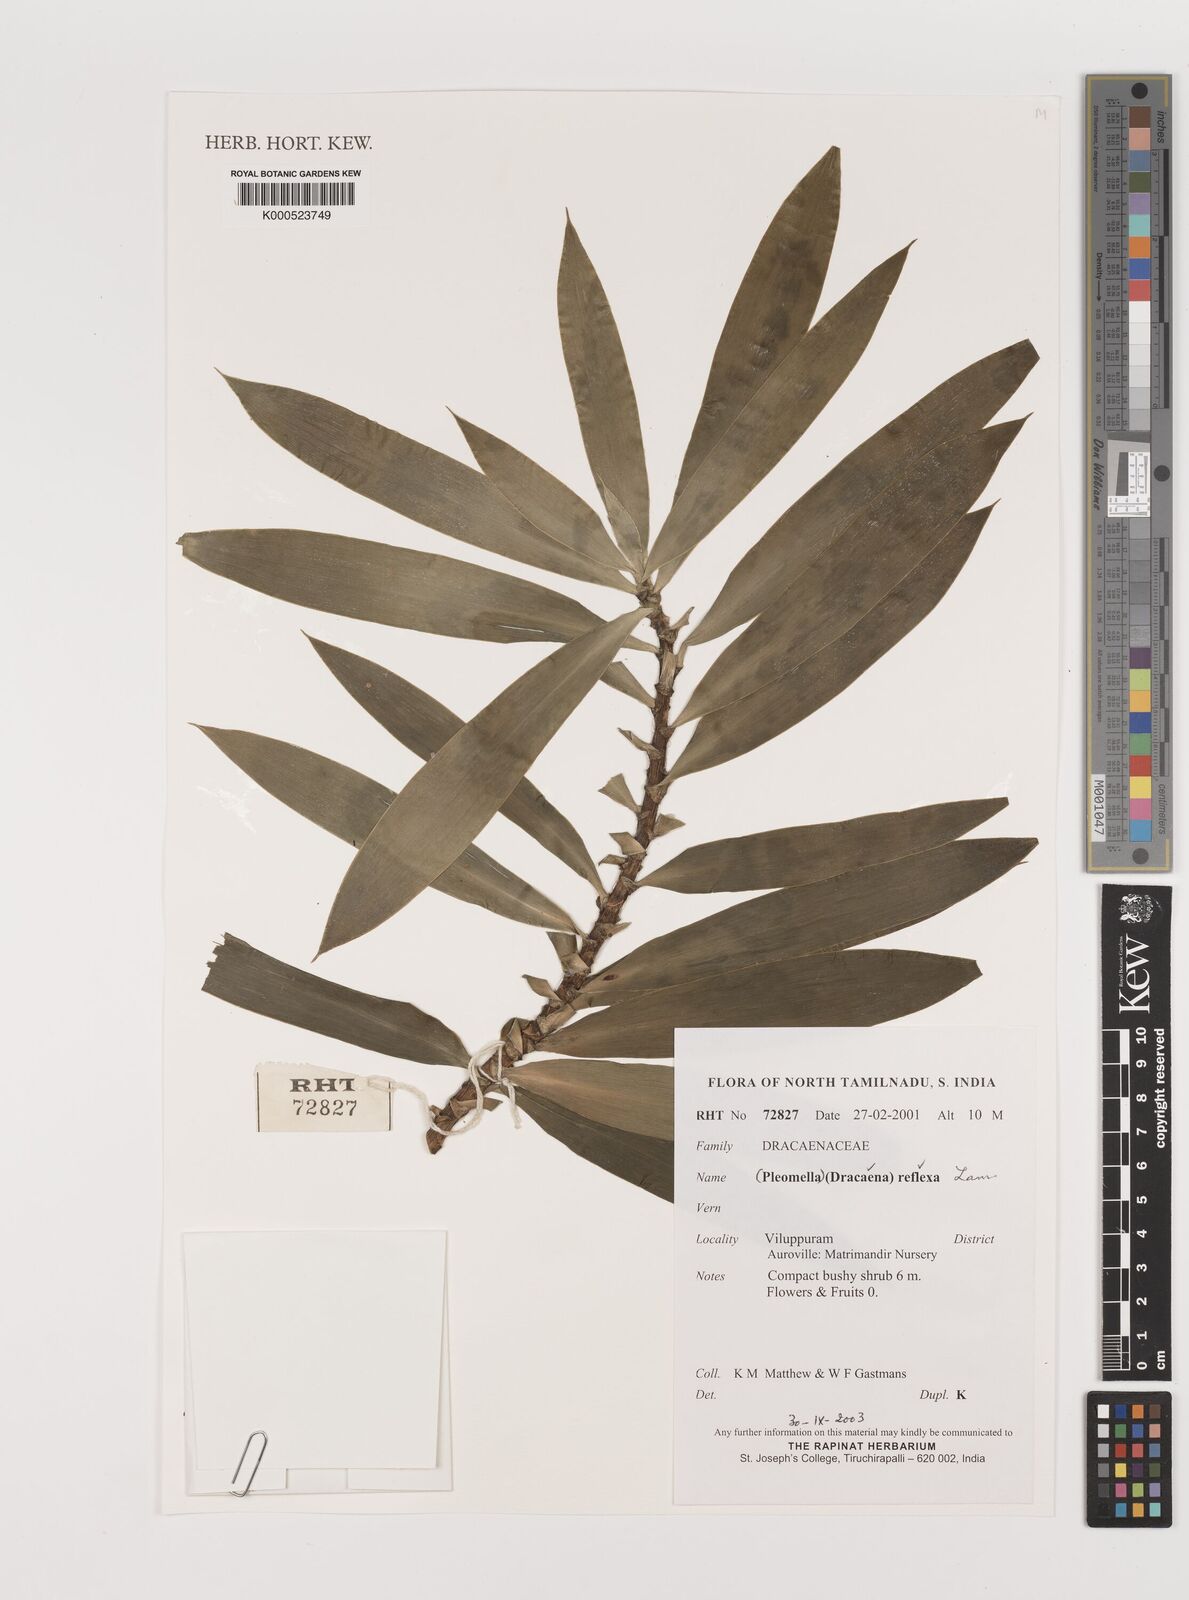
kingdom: Plantae
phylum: Tracheophyta
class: Liliopsida
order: Asparagales
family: Asparagaceae
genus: Dracaena
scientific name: Dracaena reflexa
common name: Song-of-india
